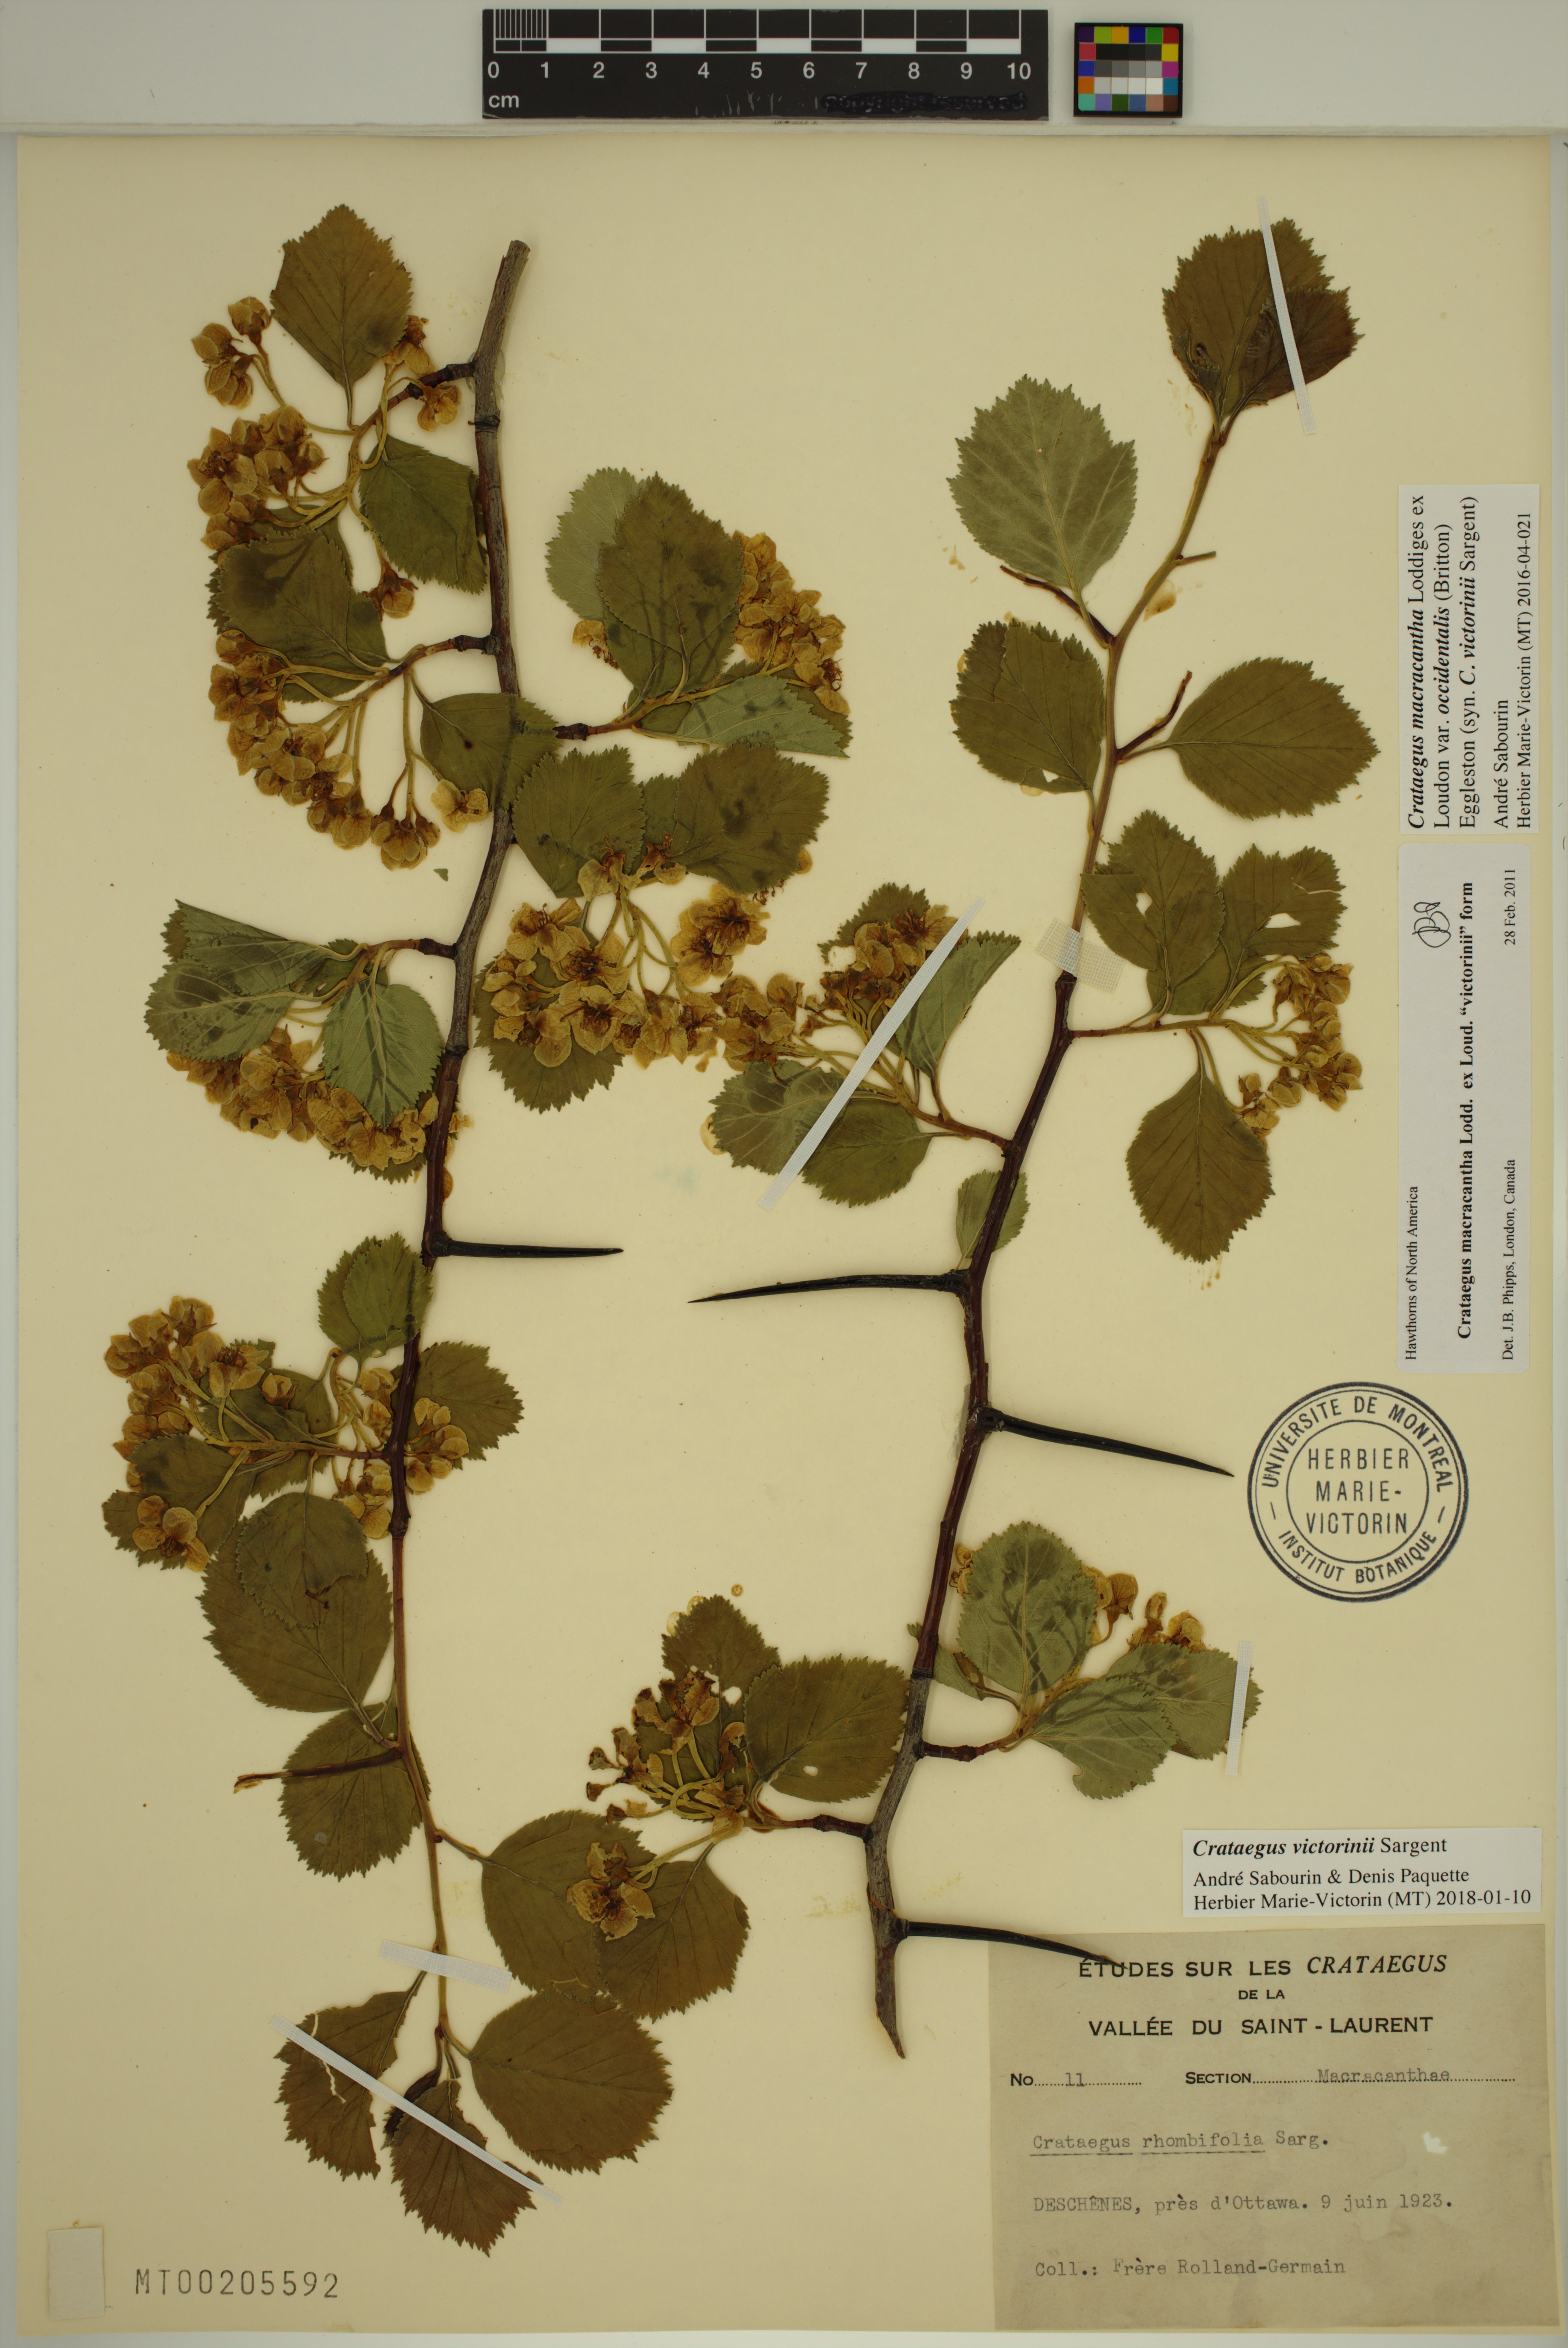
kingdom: Plantae
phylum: Tracheophyta
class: Magnoliopsida
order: Rosales
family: Rosaceae
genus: Crataegus
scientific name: Crataegus macracantha
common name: Large-thorn hawthorn
